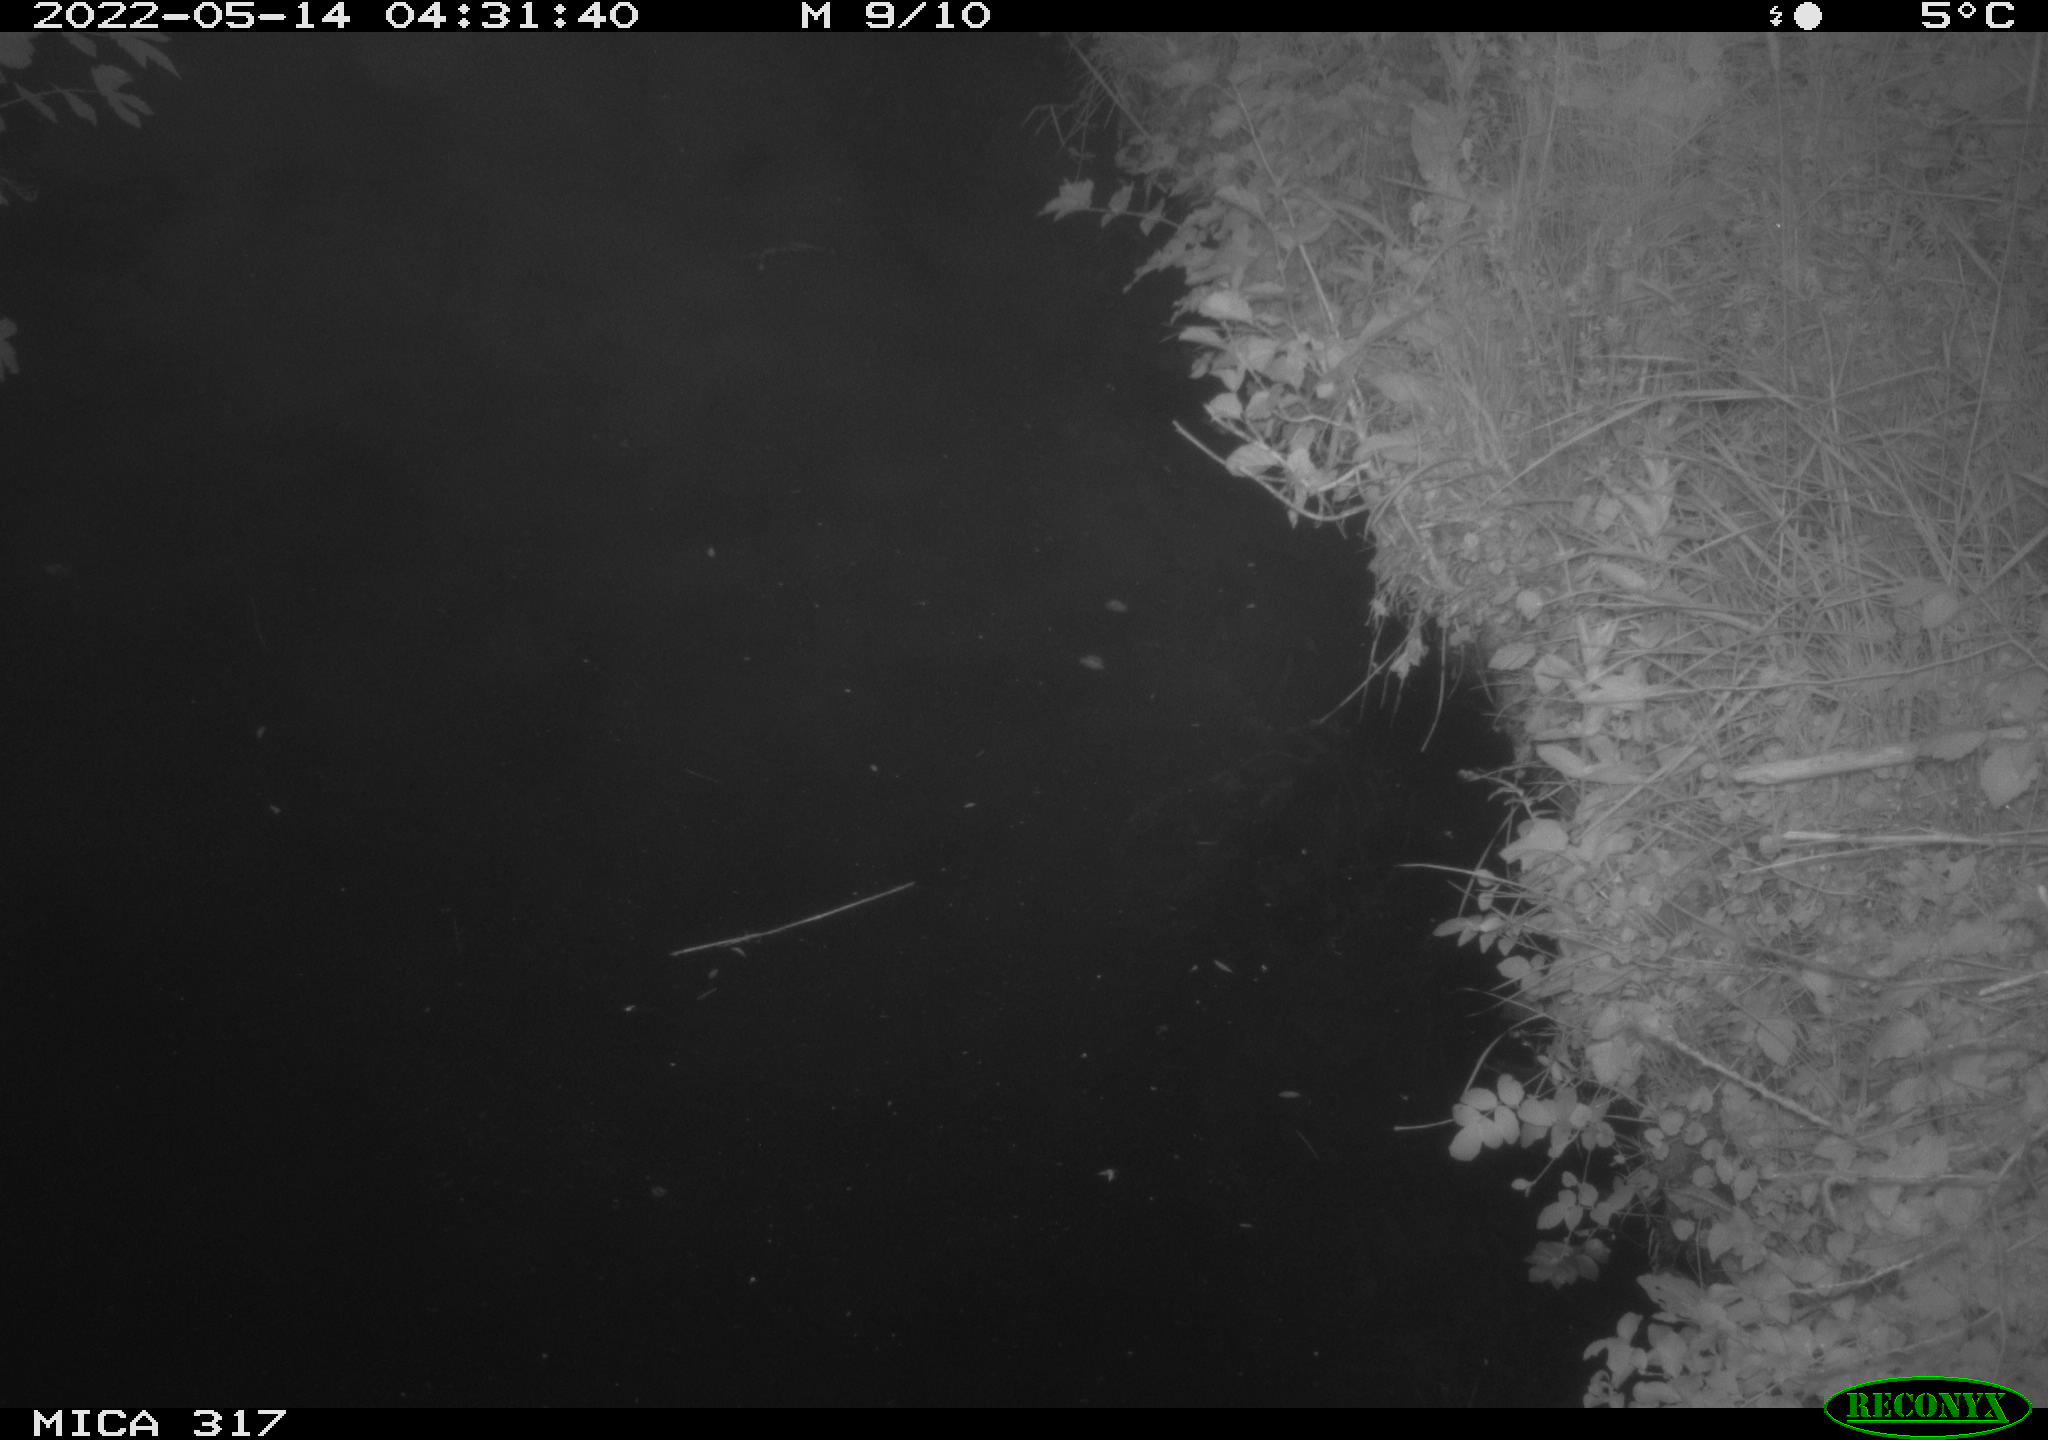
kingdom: Animalia
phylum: Chordata
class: Aves
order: Anseriformes
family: Anatidae
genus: Anas
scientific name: Anas
